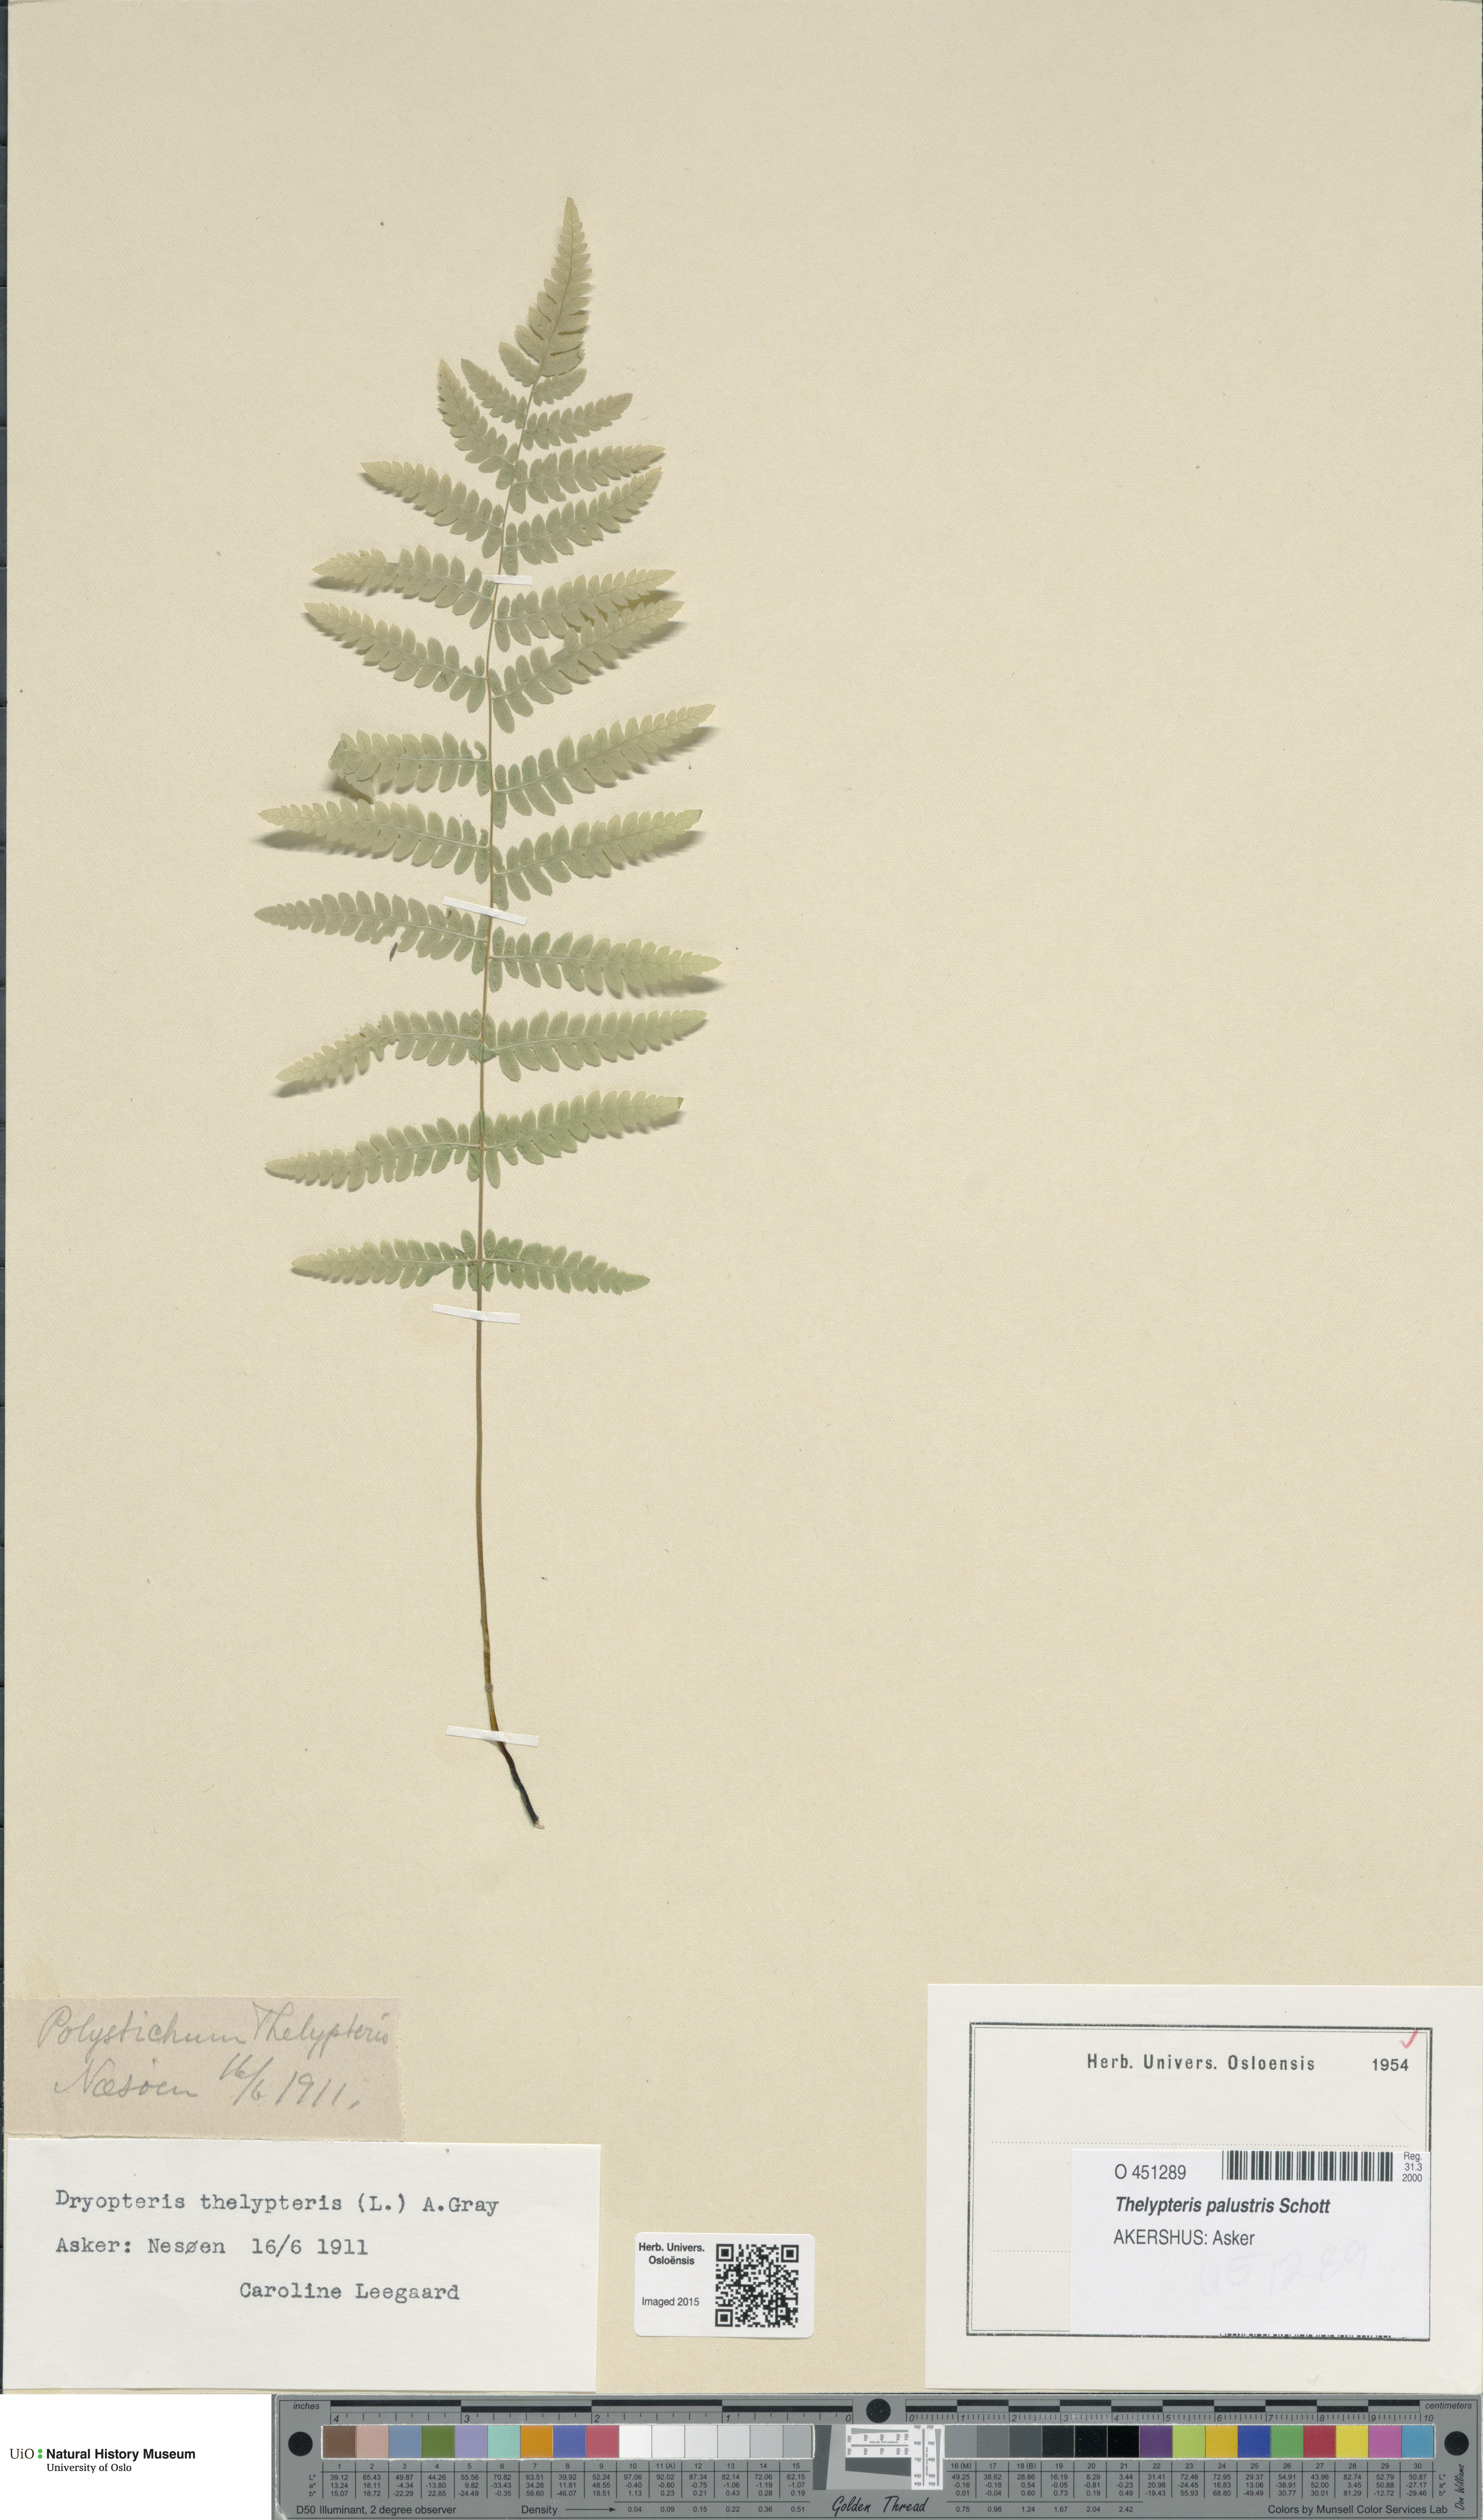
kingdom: Plantae
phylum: Tracheophyta
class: Polypodiopsida
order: Polypodiales
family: Thelypteridaceae
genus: Thelypteris
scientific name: Thelypteris palustris
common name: Marsh fern
